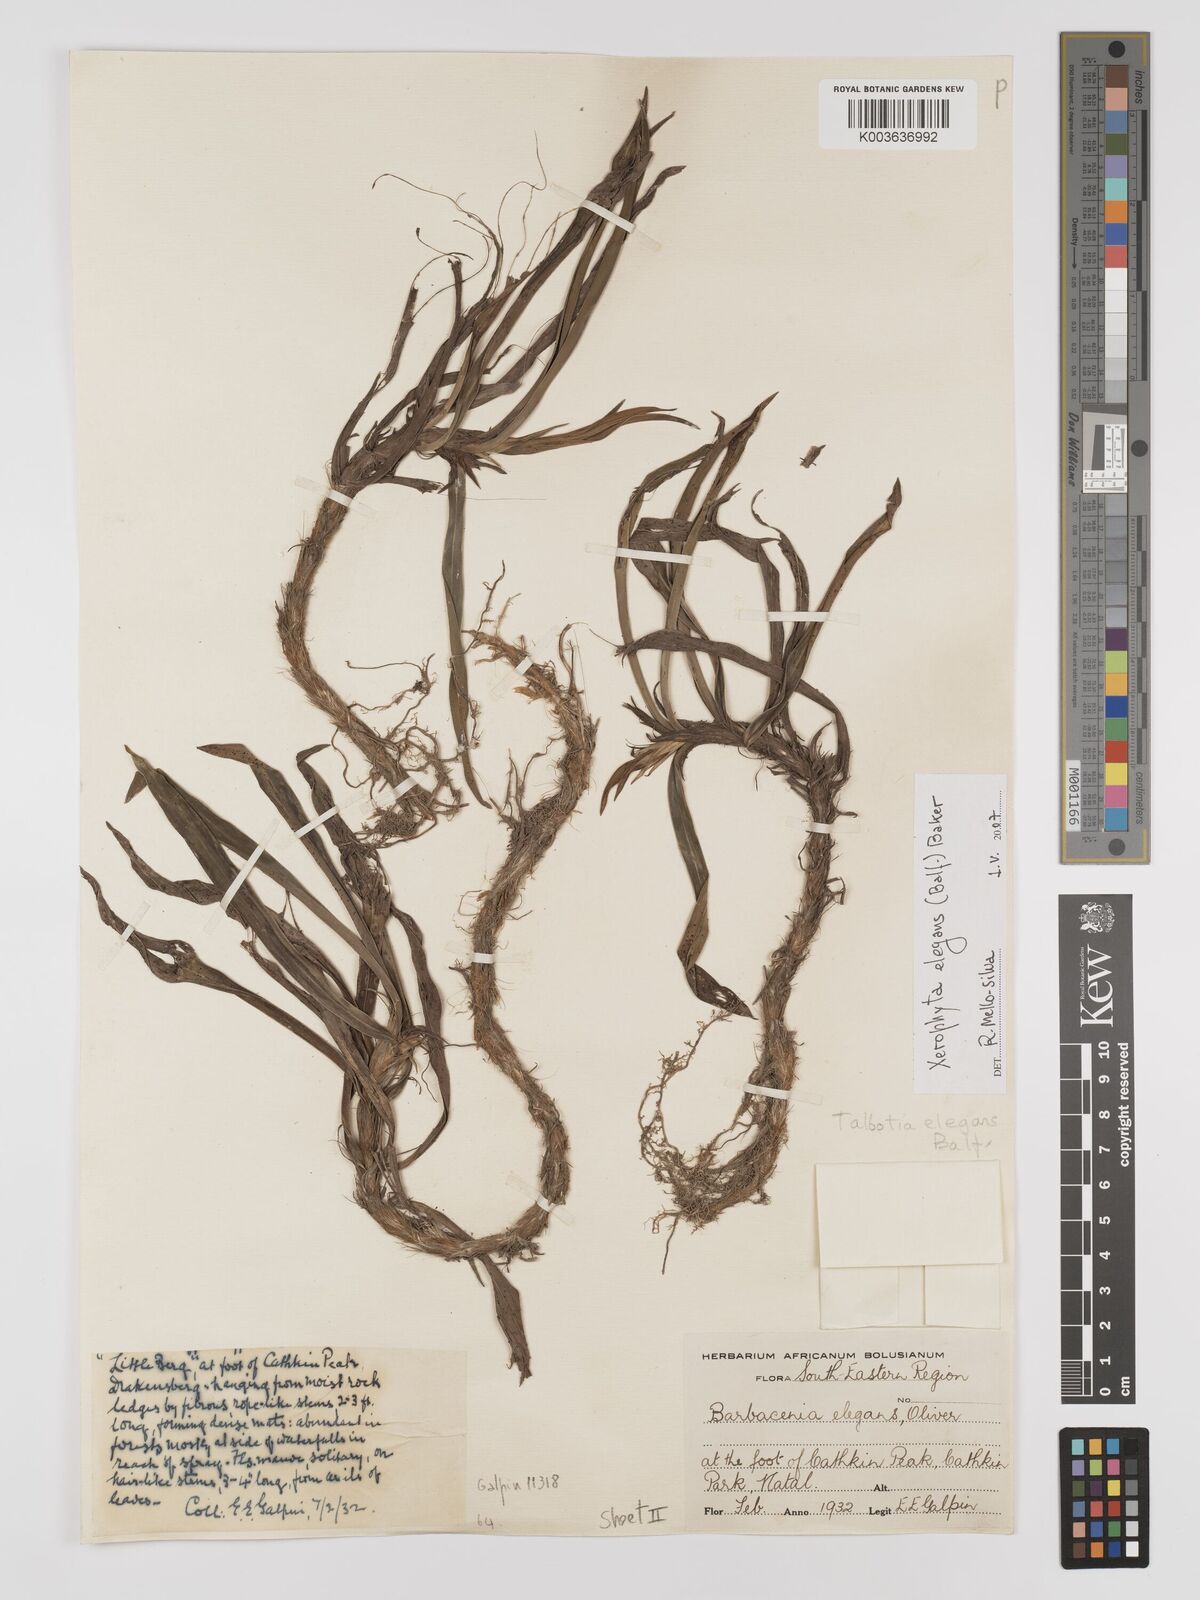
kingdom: Plantae
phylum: Tracheophyta
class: Liliopsida
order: Pandanales
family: Velloziaceae
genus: Xerophyta
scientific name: Xerophyta elegans
